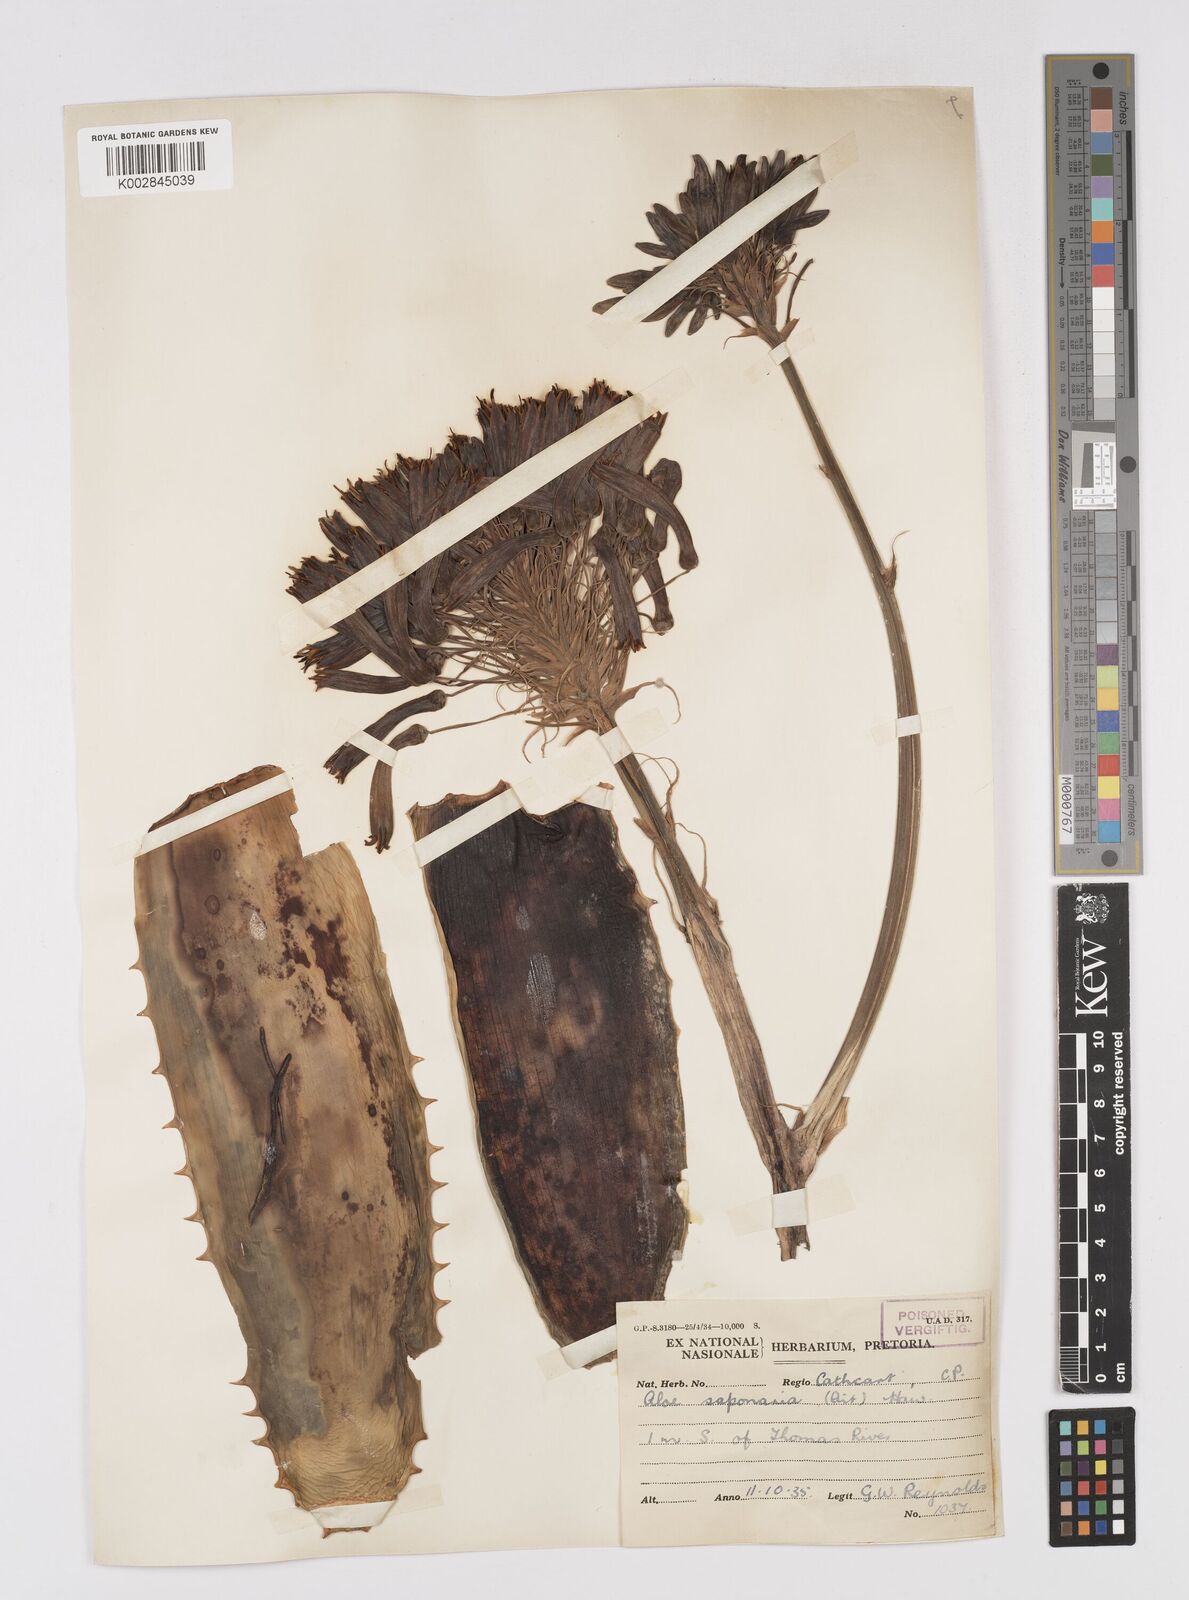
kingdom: Plantae
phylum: Tracheophyta
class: Liliopsida
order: Asparagales
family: Asphodelaceae
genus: Aloe
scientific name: Aloe microstigma
